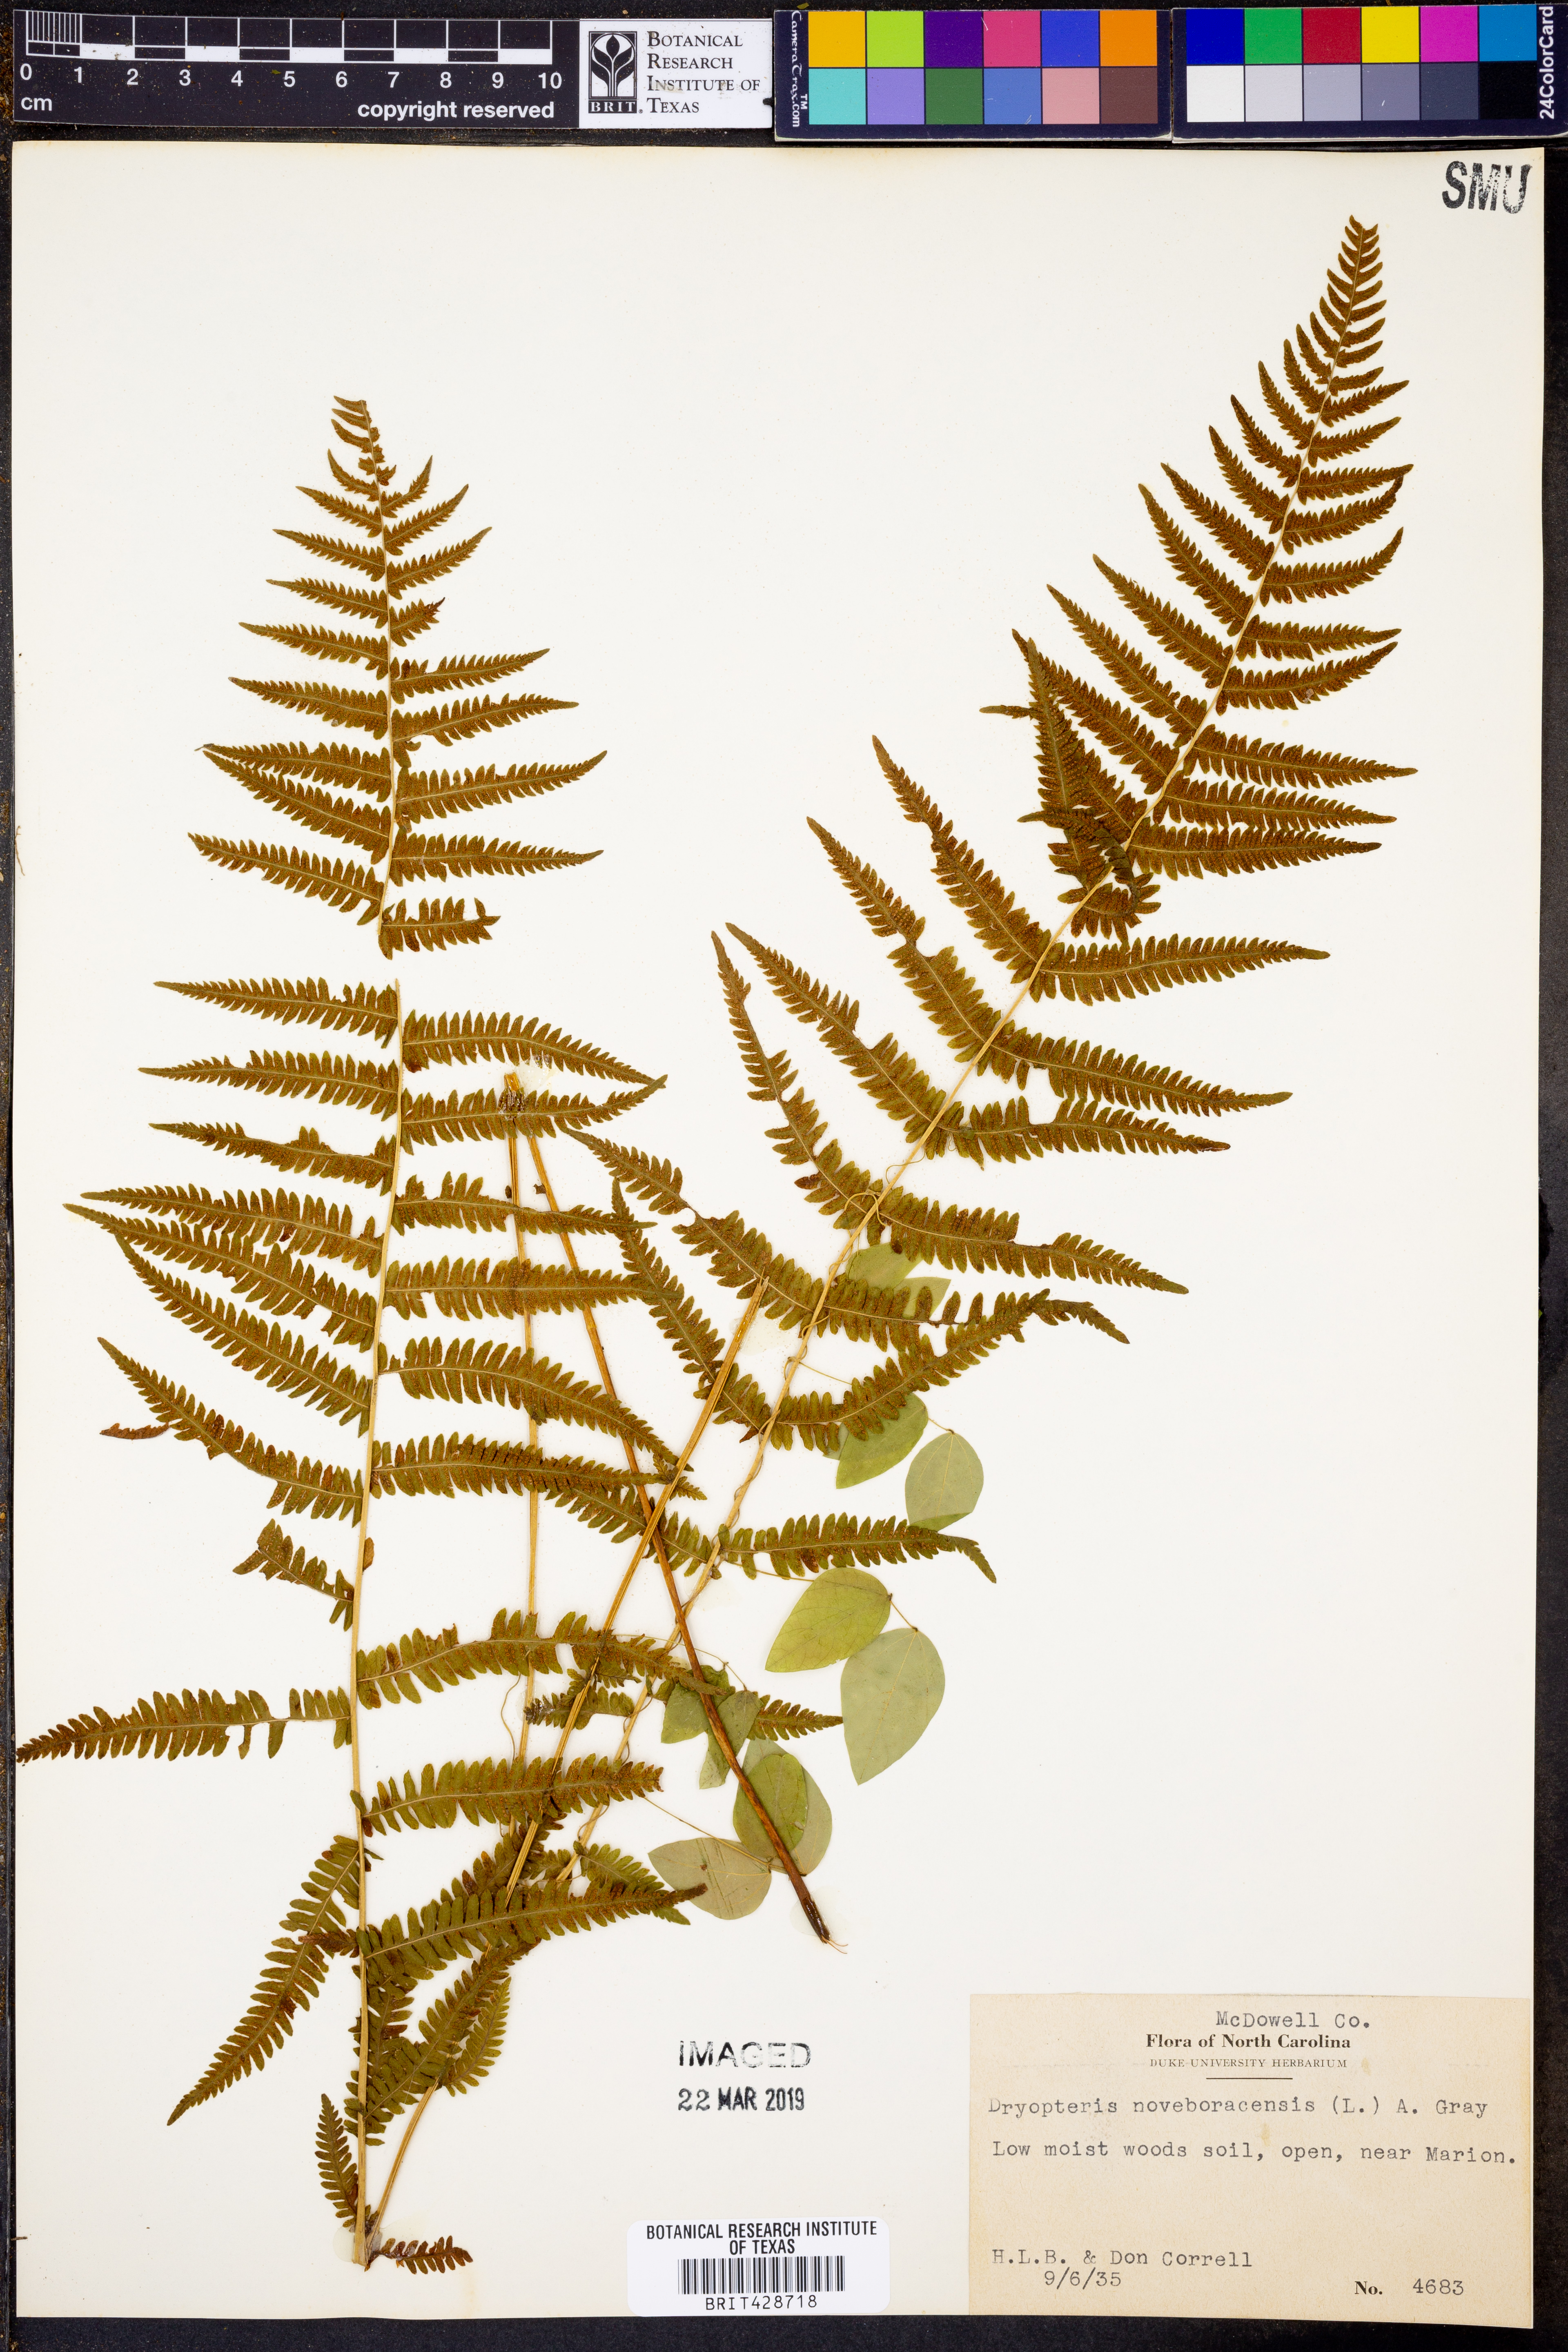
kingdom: Plantae
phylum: Tracheophyta
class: Polypodiopsida
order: Polypodiales
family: Thelypteridaceae
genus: Amauropelta
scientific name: Amauropelta noveboracensis
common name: New york fern
